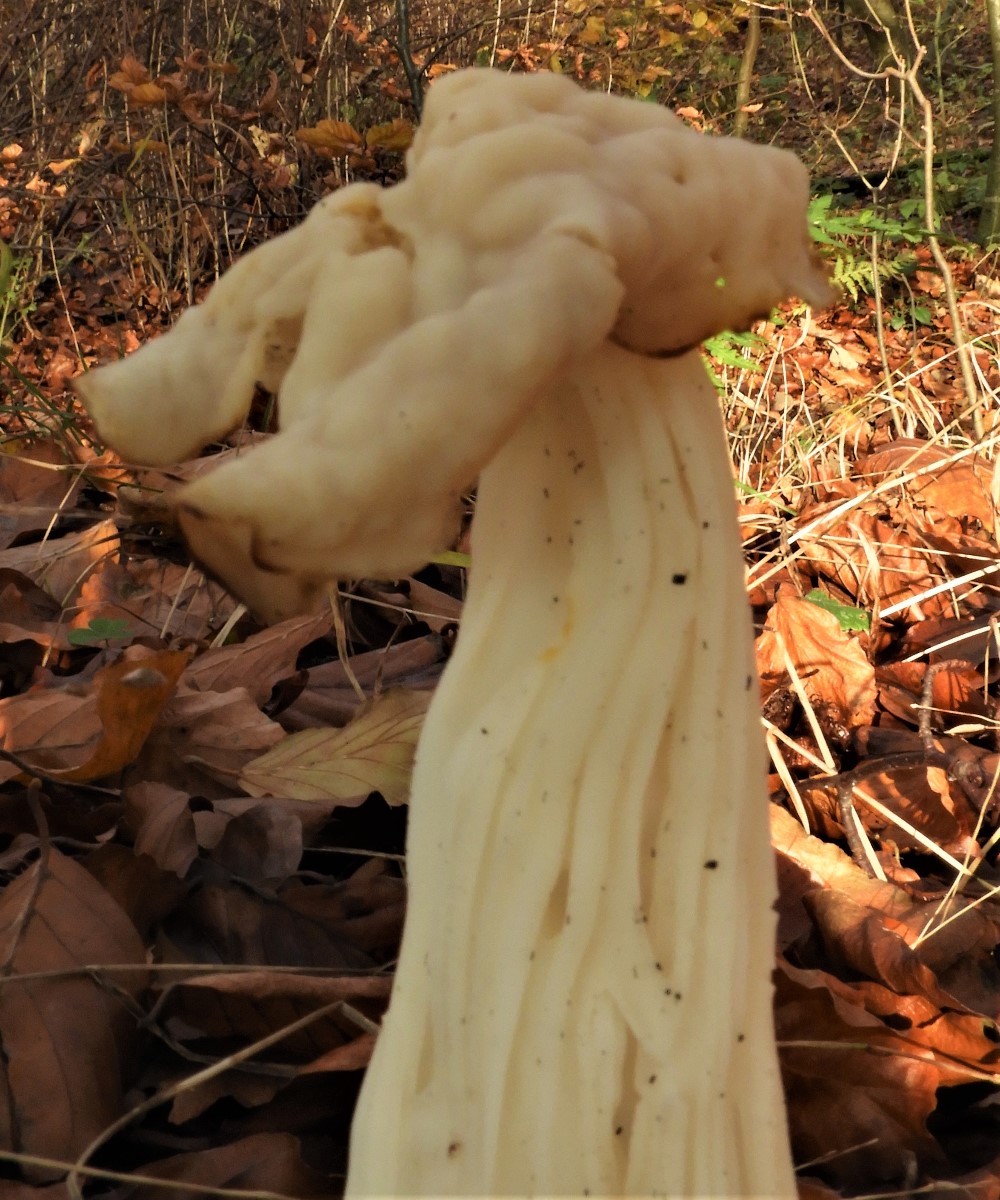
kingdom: Fungi
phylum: Ascomycota
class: Pezizomycetes
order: Pezizales
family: Helvellaceae
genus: Helvella
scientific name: Helvella crispa
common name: kruset foldhat
